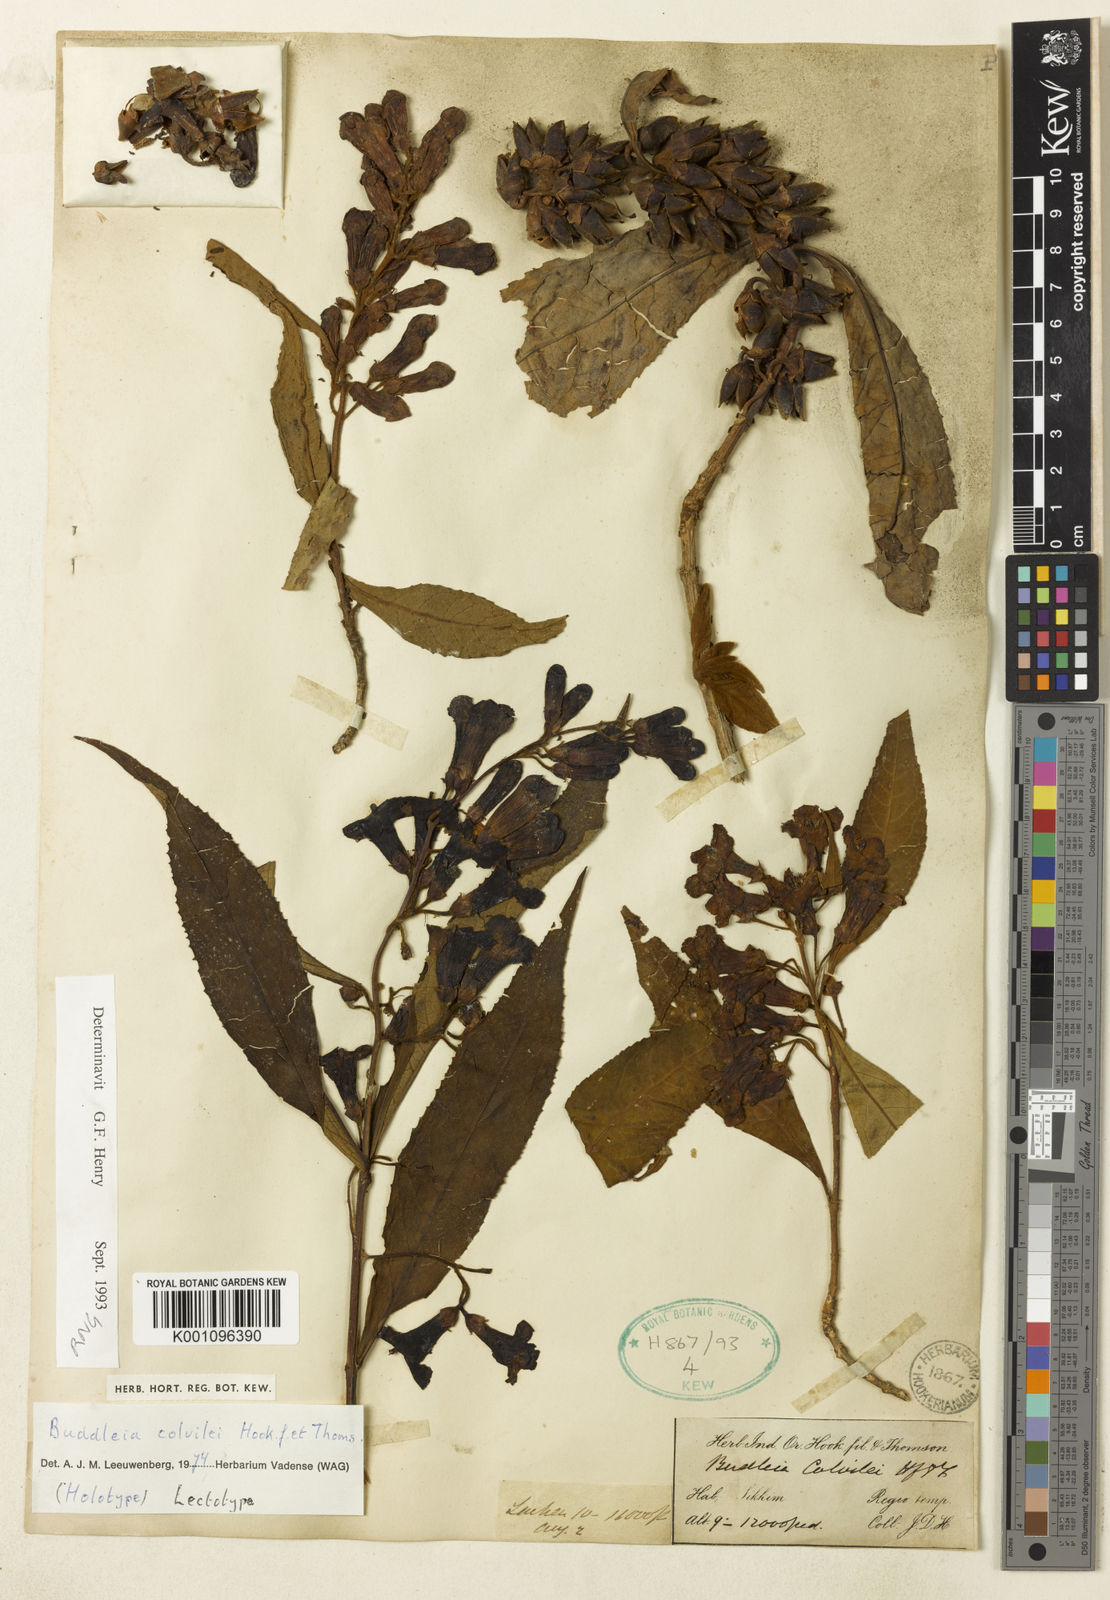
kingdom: Plantae
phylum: Tracheophyta
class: Magnoliopsida
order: Lamiales
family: Scrophulariaceae
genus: Buddleja
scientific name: Buddleja colvilei
